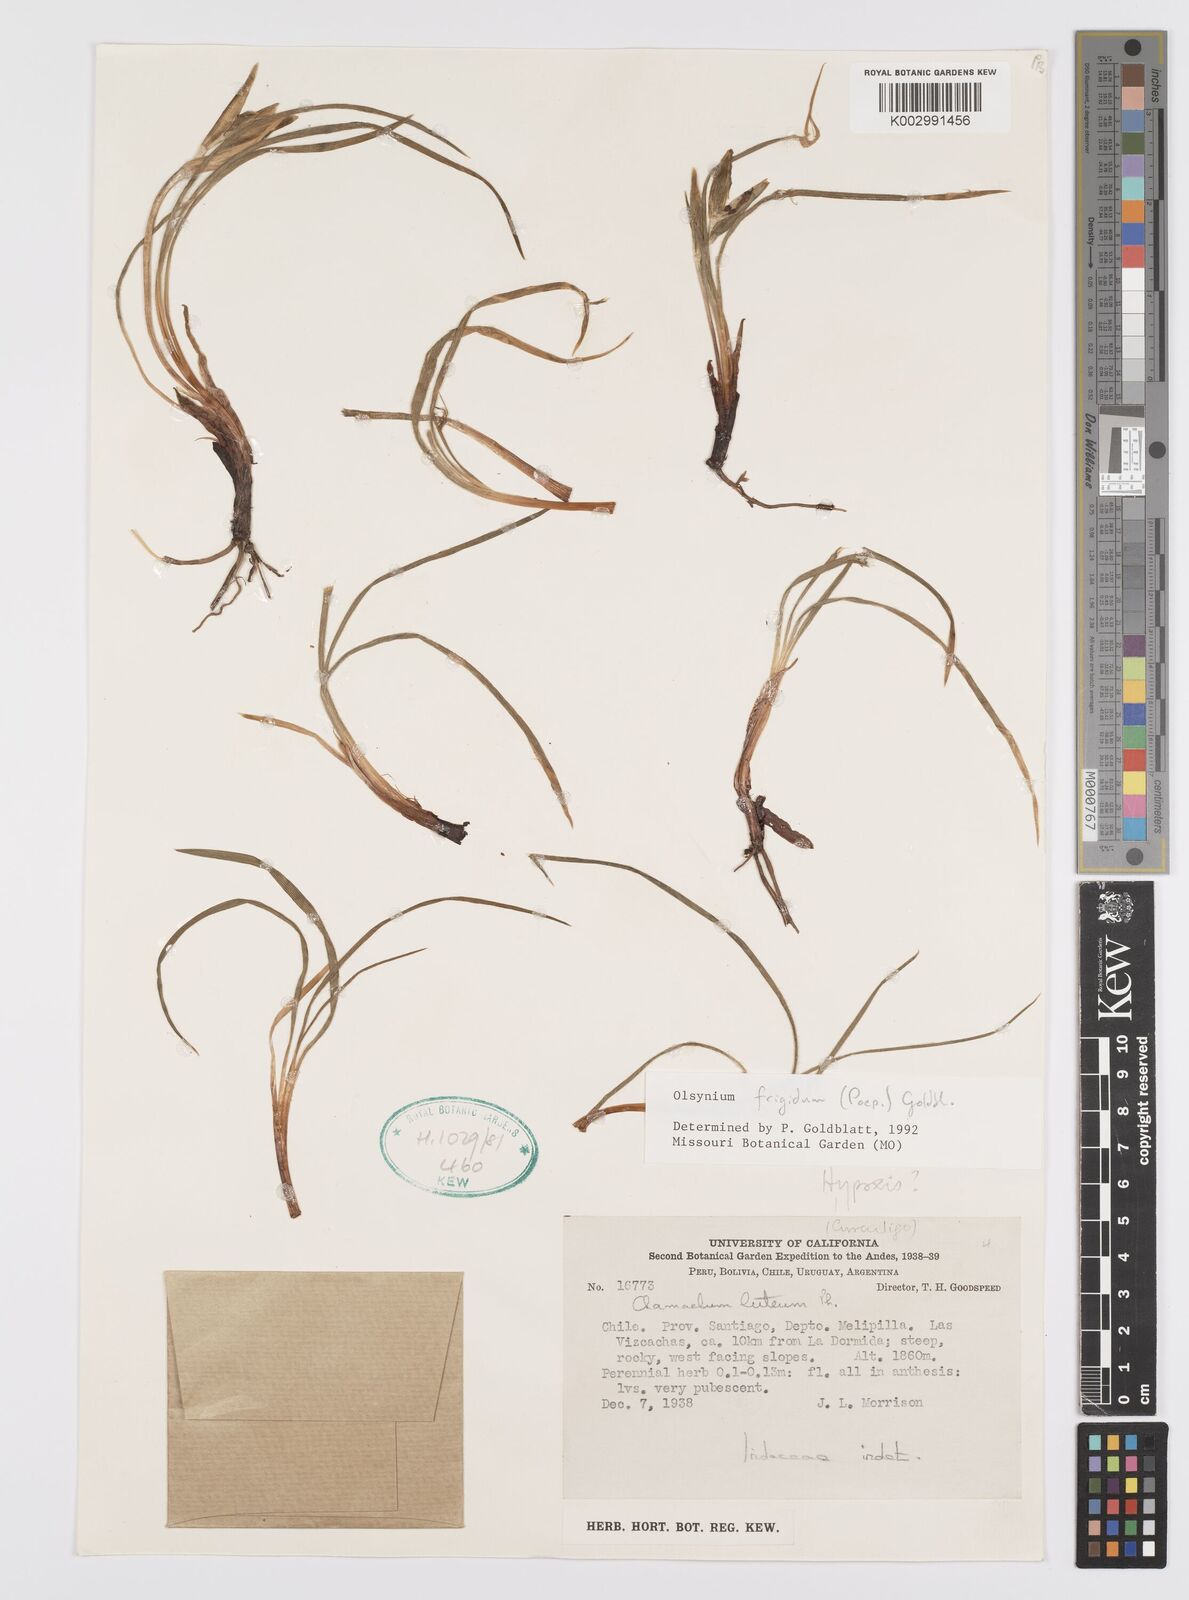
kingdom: Plantae
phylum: Tracheophyta
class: Liliopsida
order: Asparagales
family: Iridaceae
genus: Olsynium
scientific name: Olsynium obscurum
